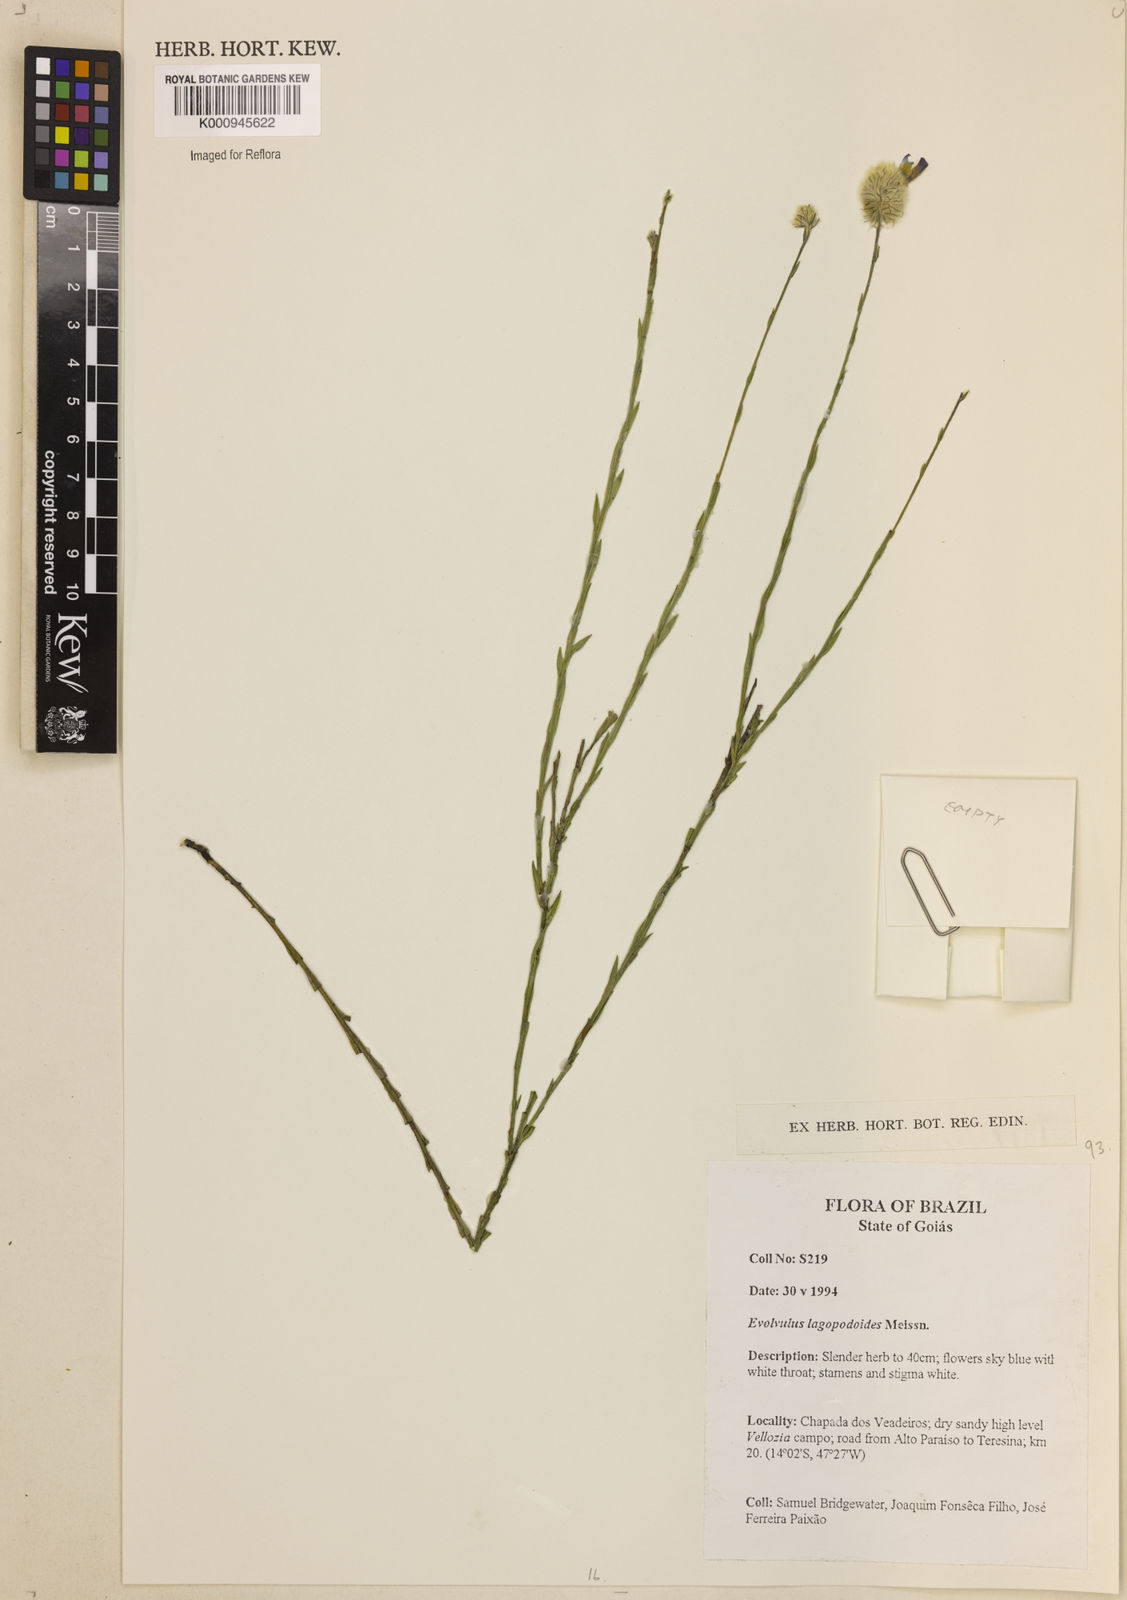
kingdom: Plantae
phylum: Tracheophyta
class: Magnoliopsida
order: Solanales
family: Convolvulaceae
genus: Evolvulus
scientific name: Evolvulus lagopodioides
